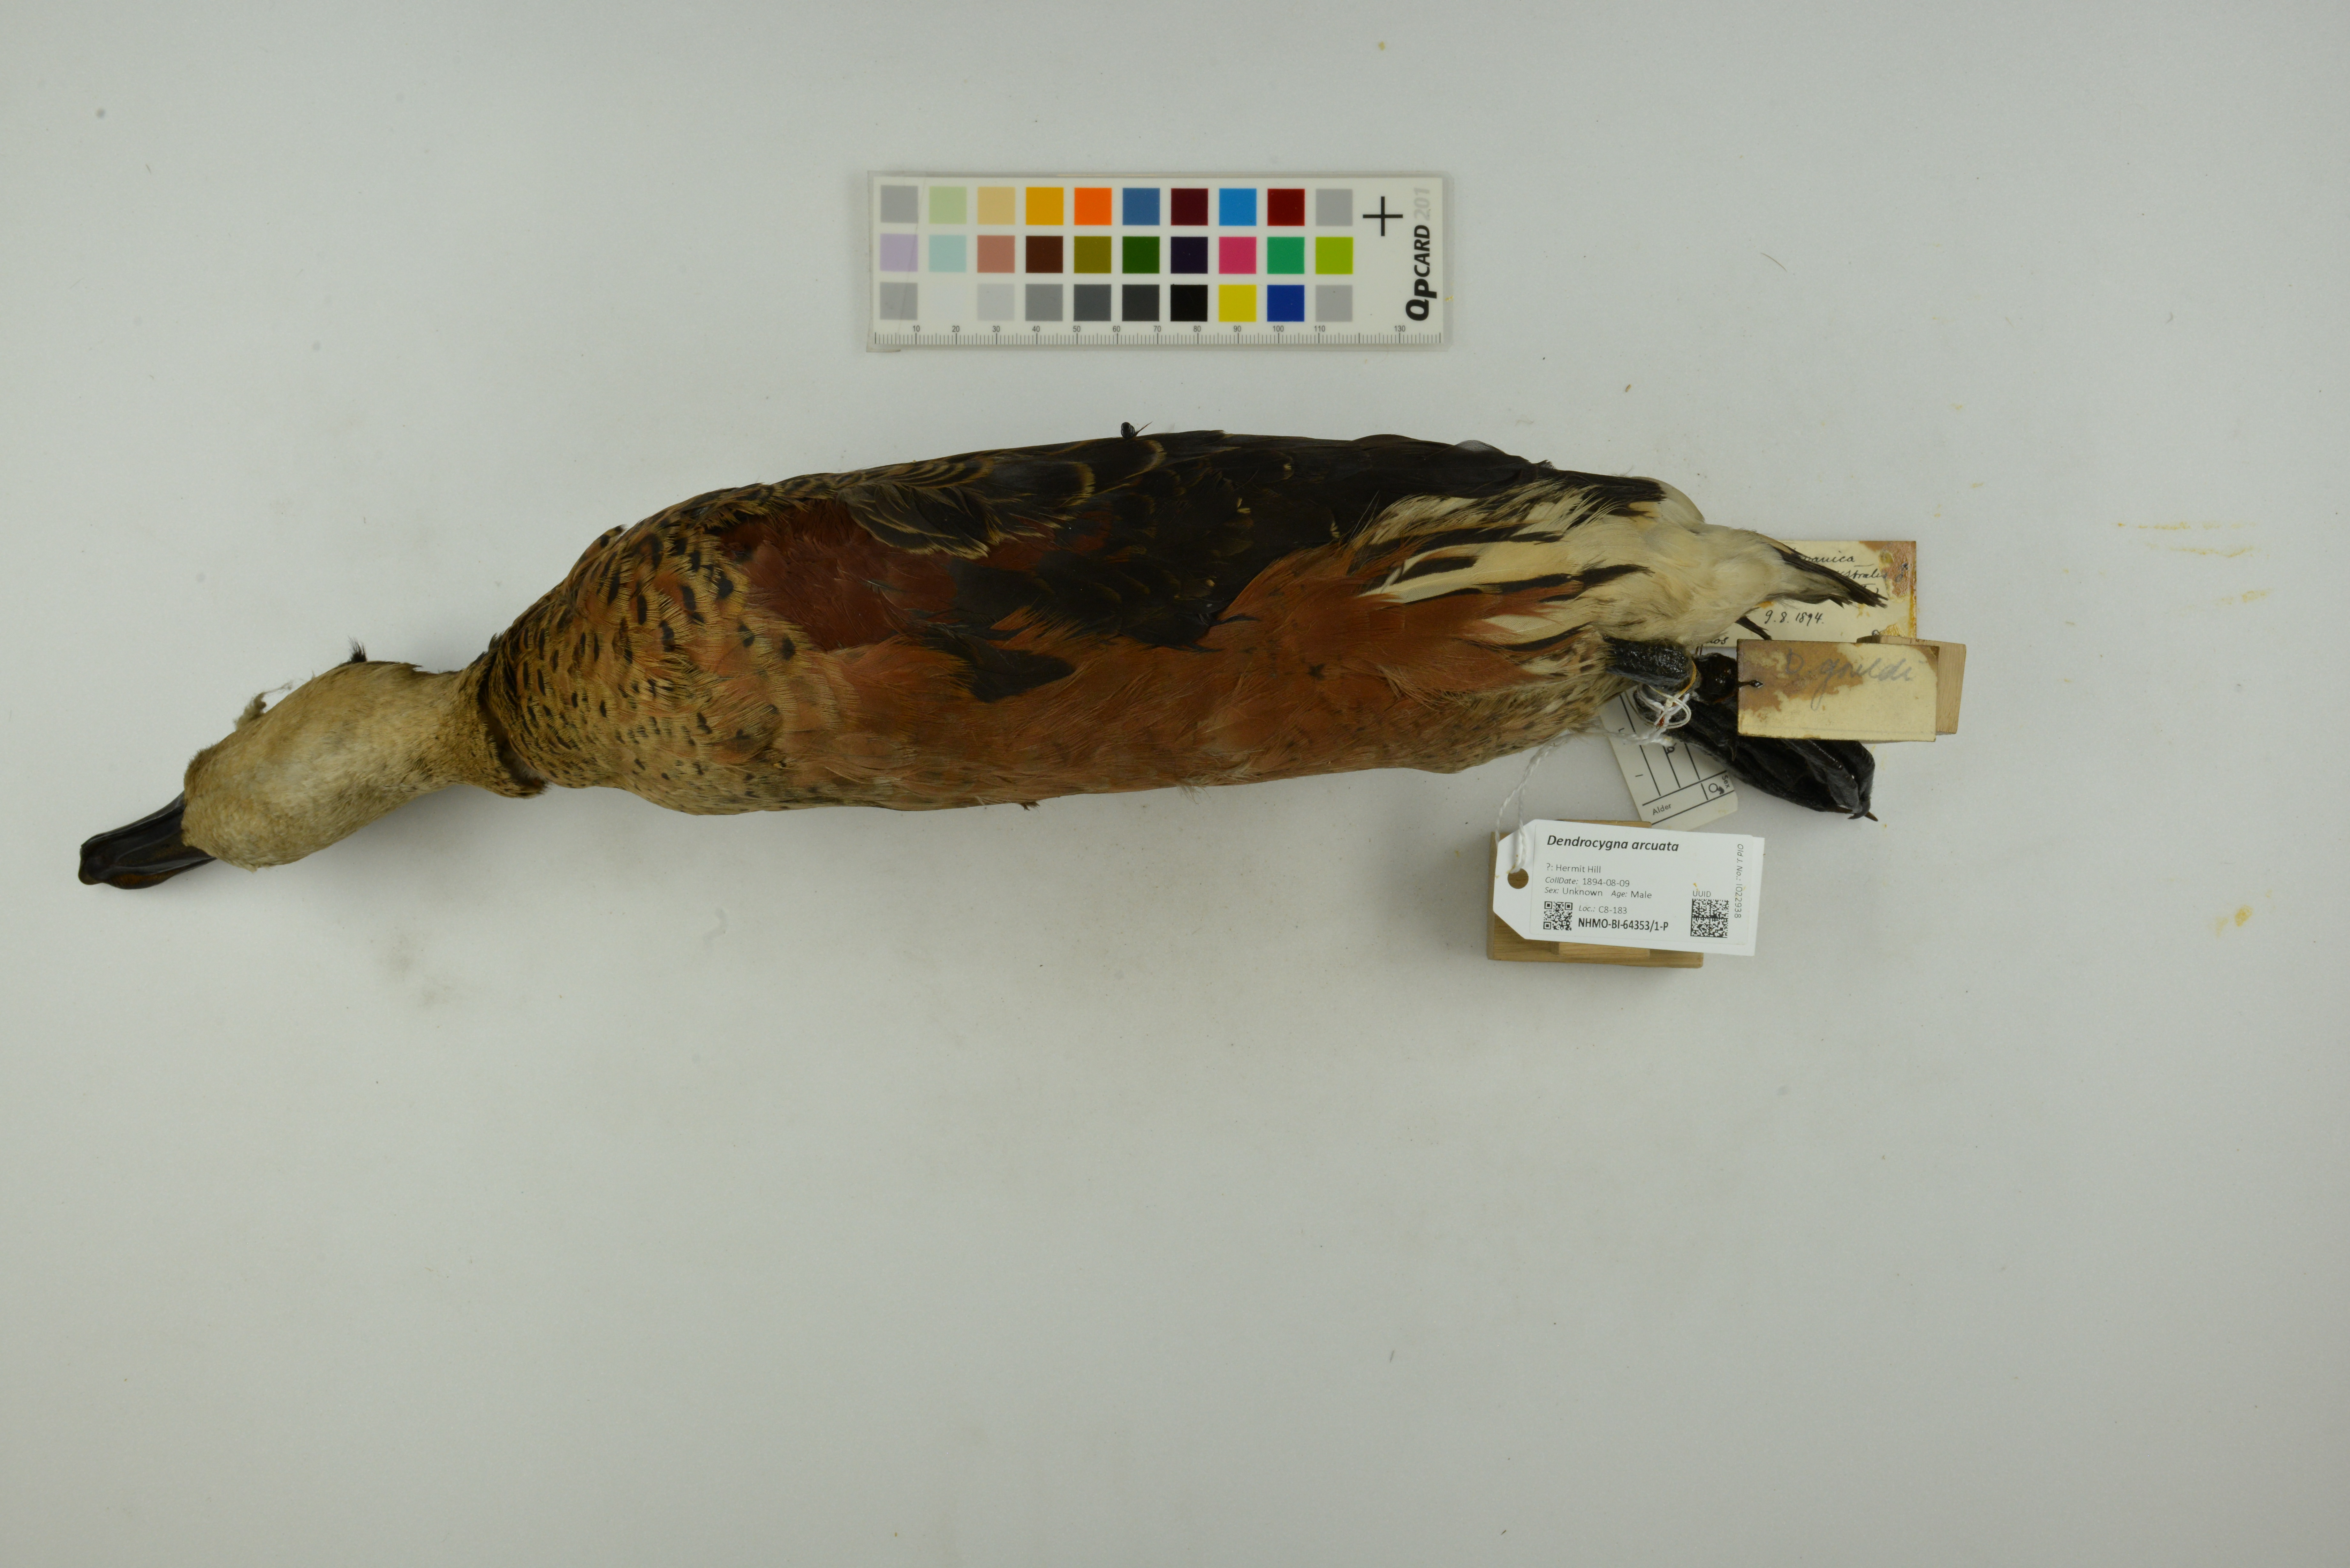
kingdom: Animalia
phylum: Chordata
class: Aves
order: Anseriformes
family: Anatidae
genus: Dendrocygna
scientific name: Dendrocygna arcuata
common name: Wandering whistling-duck
